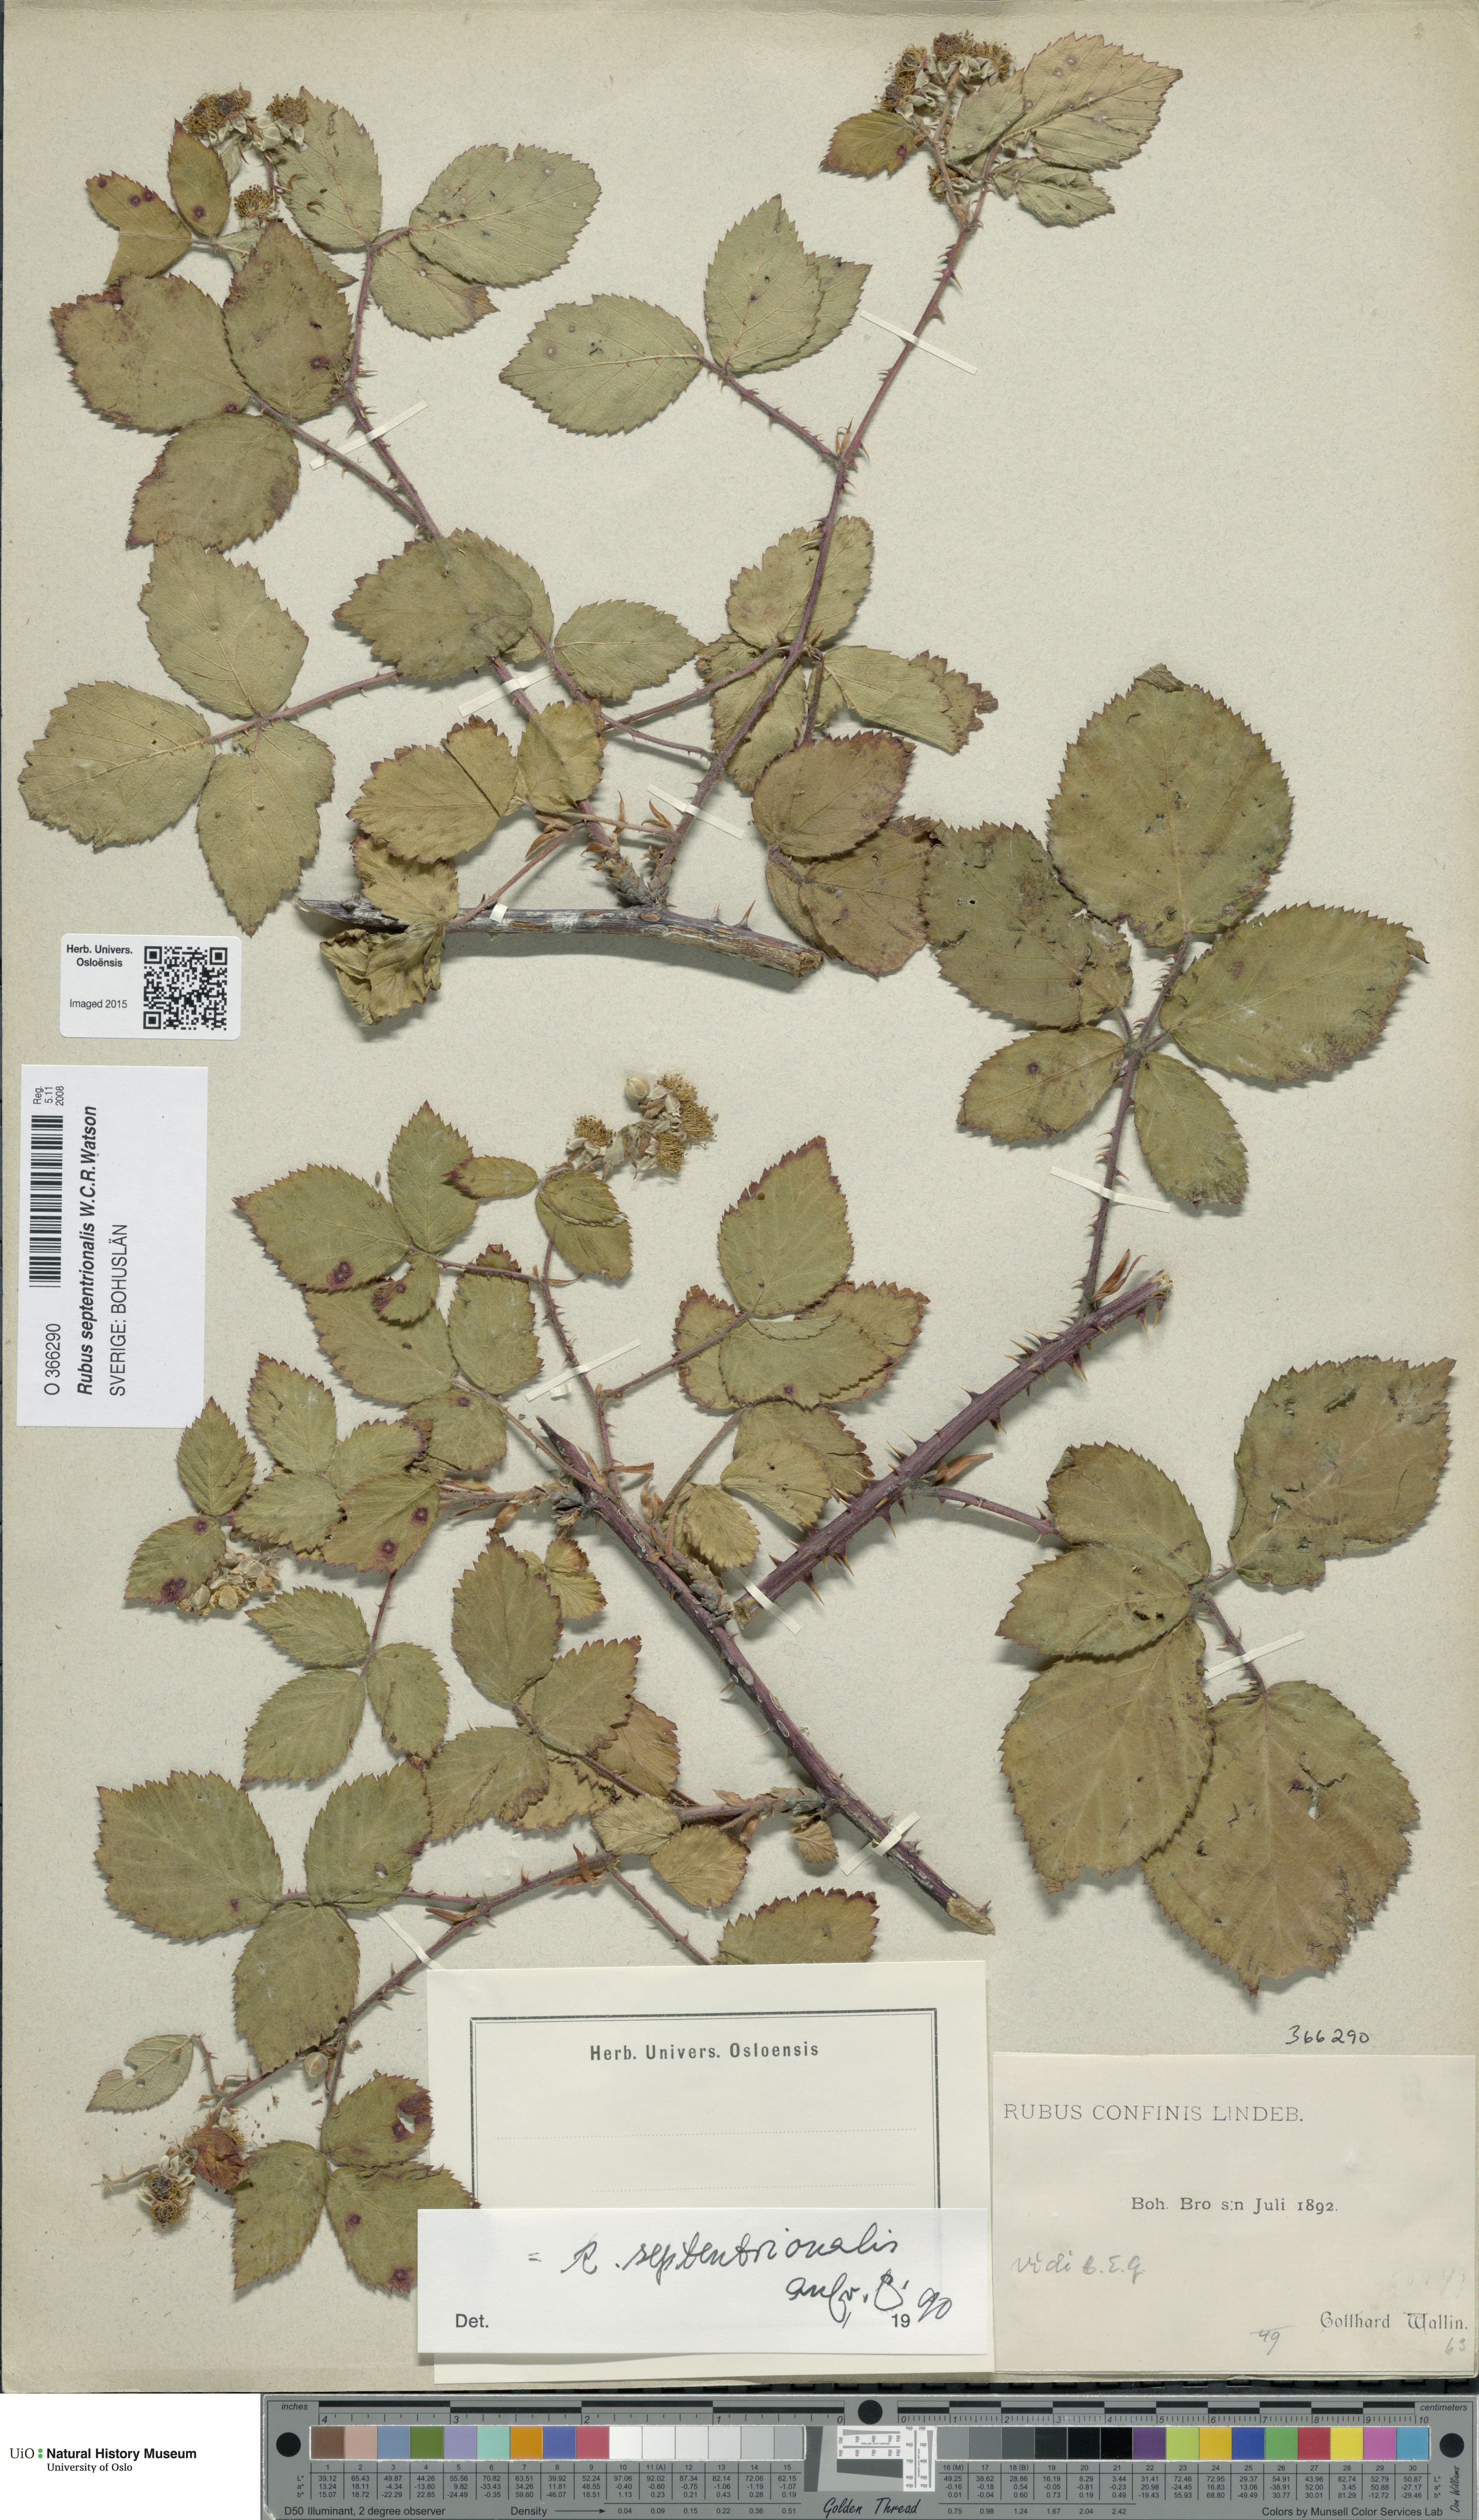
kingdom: Plantae
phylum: Tracheophyta
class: Magnoliopsida
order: Rosales
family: Rosaceae
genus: Rubus
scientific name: Rubus septentrionalis
